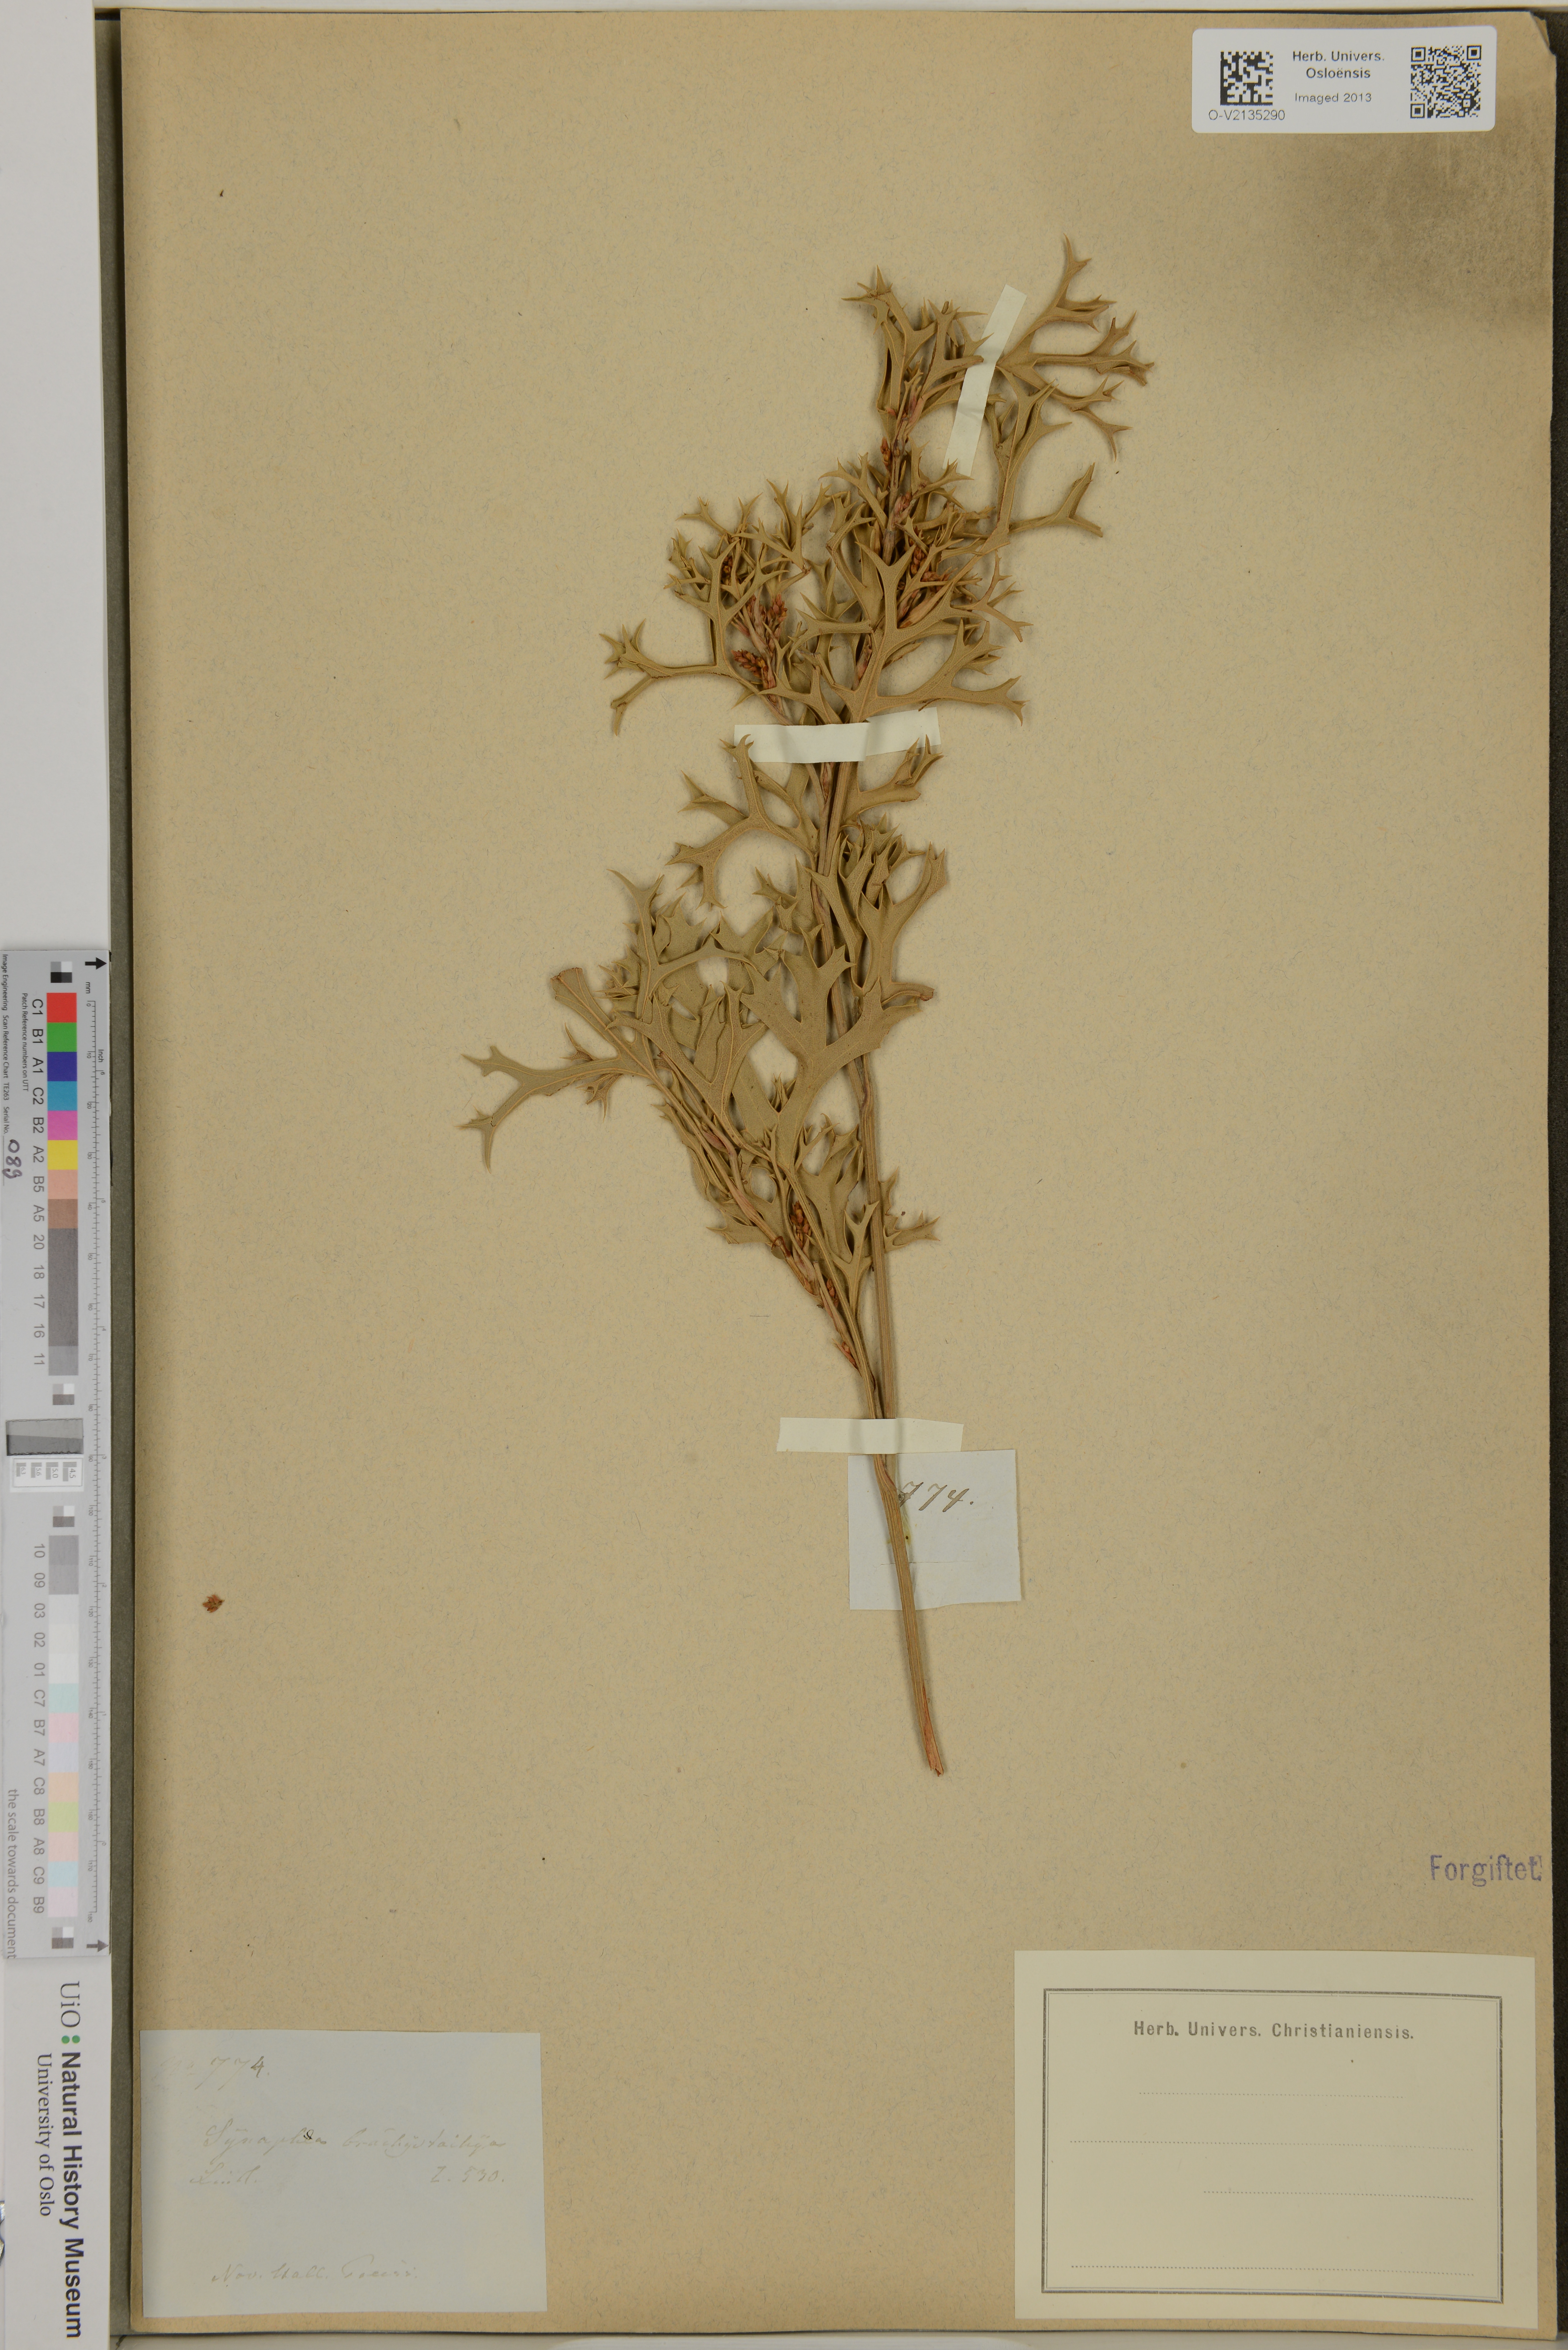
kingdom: Plantae
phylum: Tracheophyta
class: Magnoliopsida
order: Proteales
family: Proteaceae
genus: Synaphea
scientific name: Synaphea polymorpha
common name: Albany synaphea
